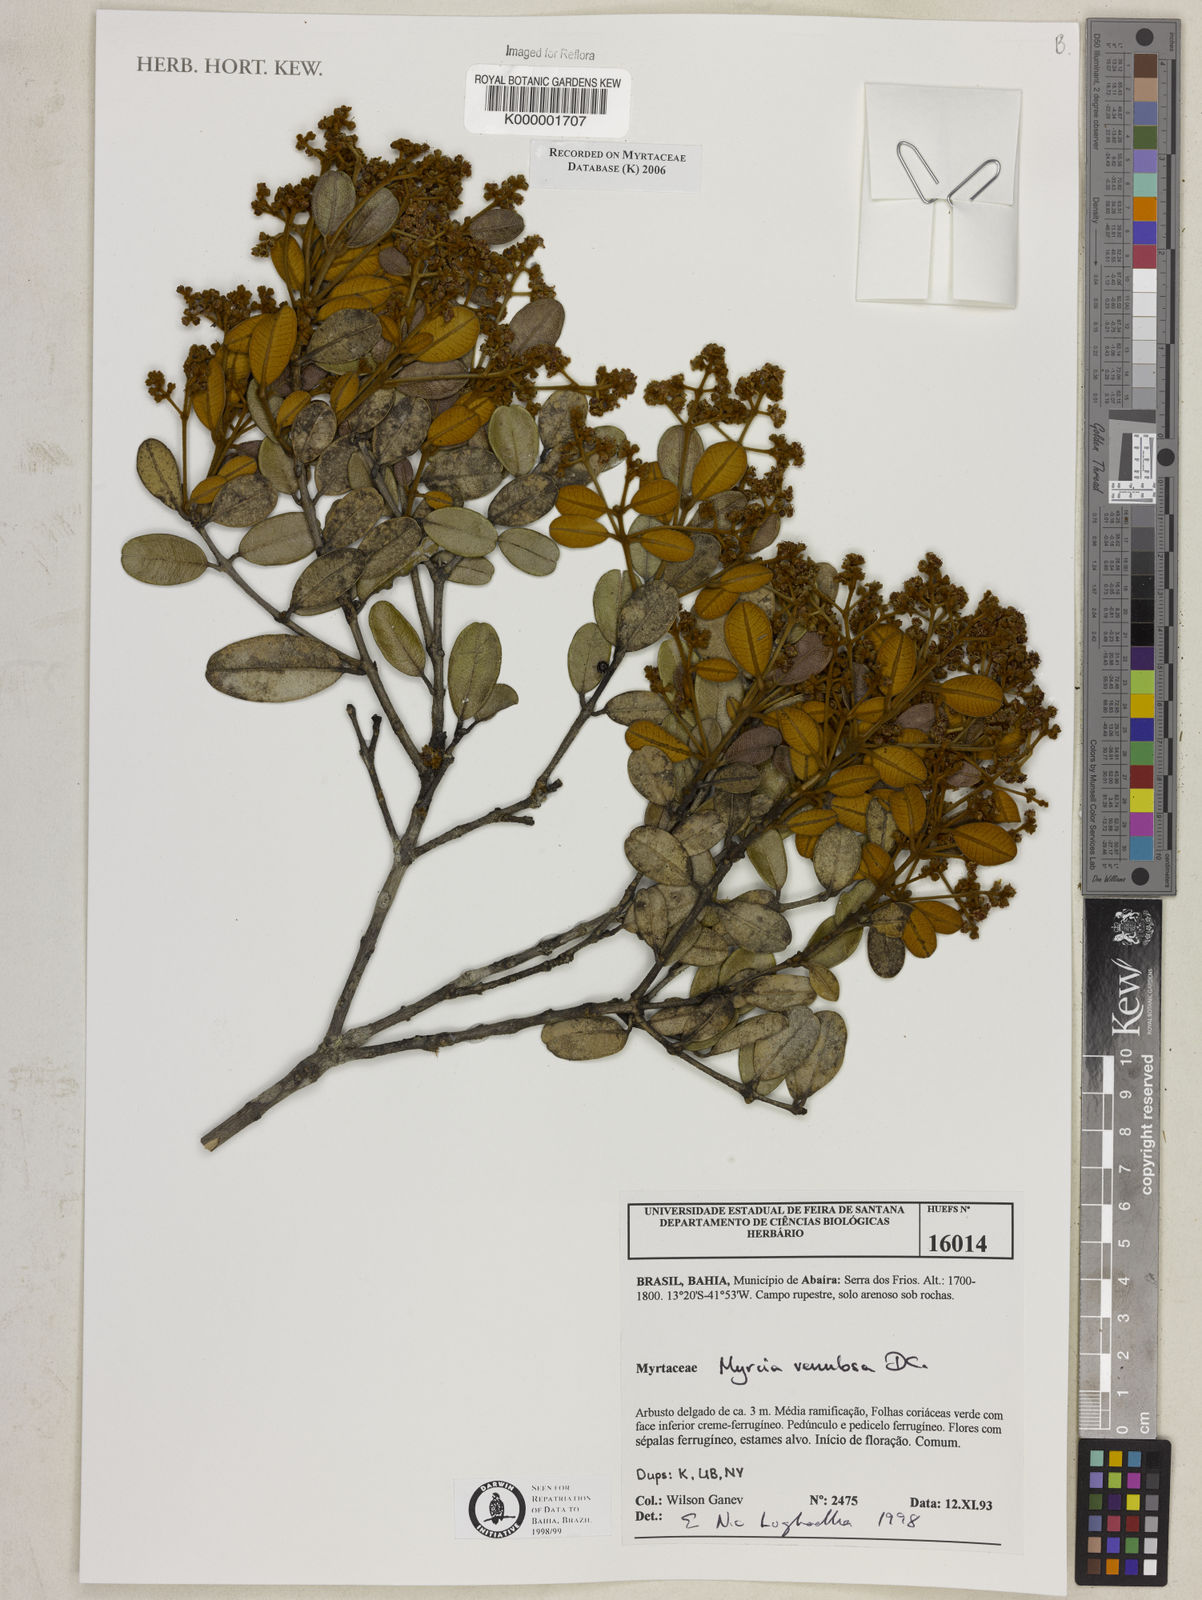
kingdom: Plantae
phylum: Tracheophyta
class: Magnoliopsida
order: Myrtales
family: Myrtaceae
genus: Myrcia
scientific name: Myrcia venulosa
